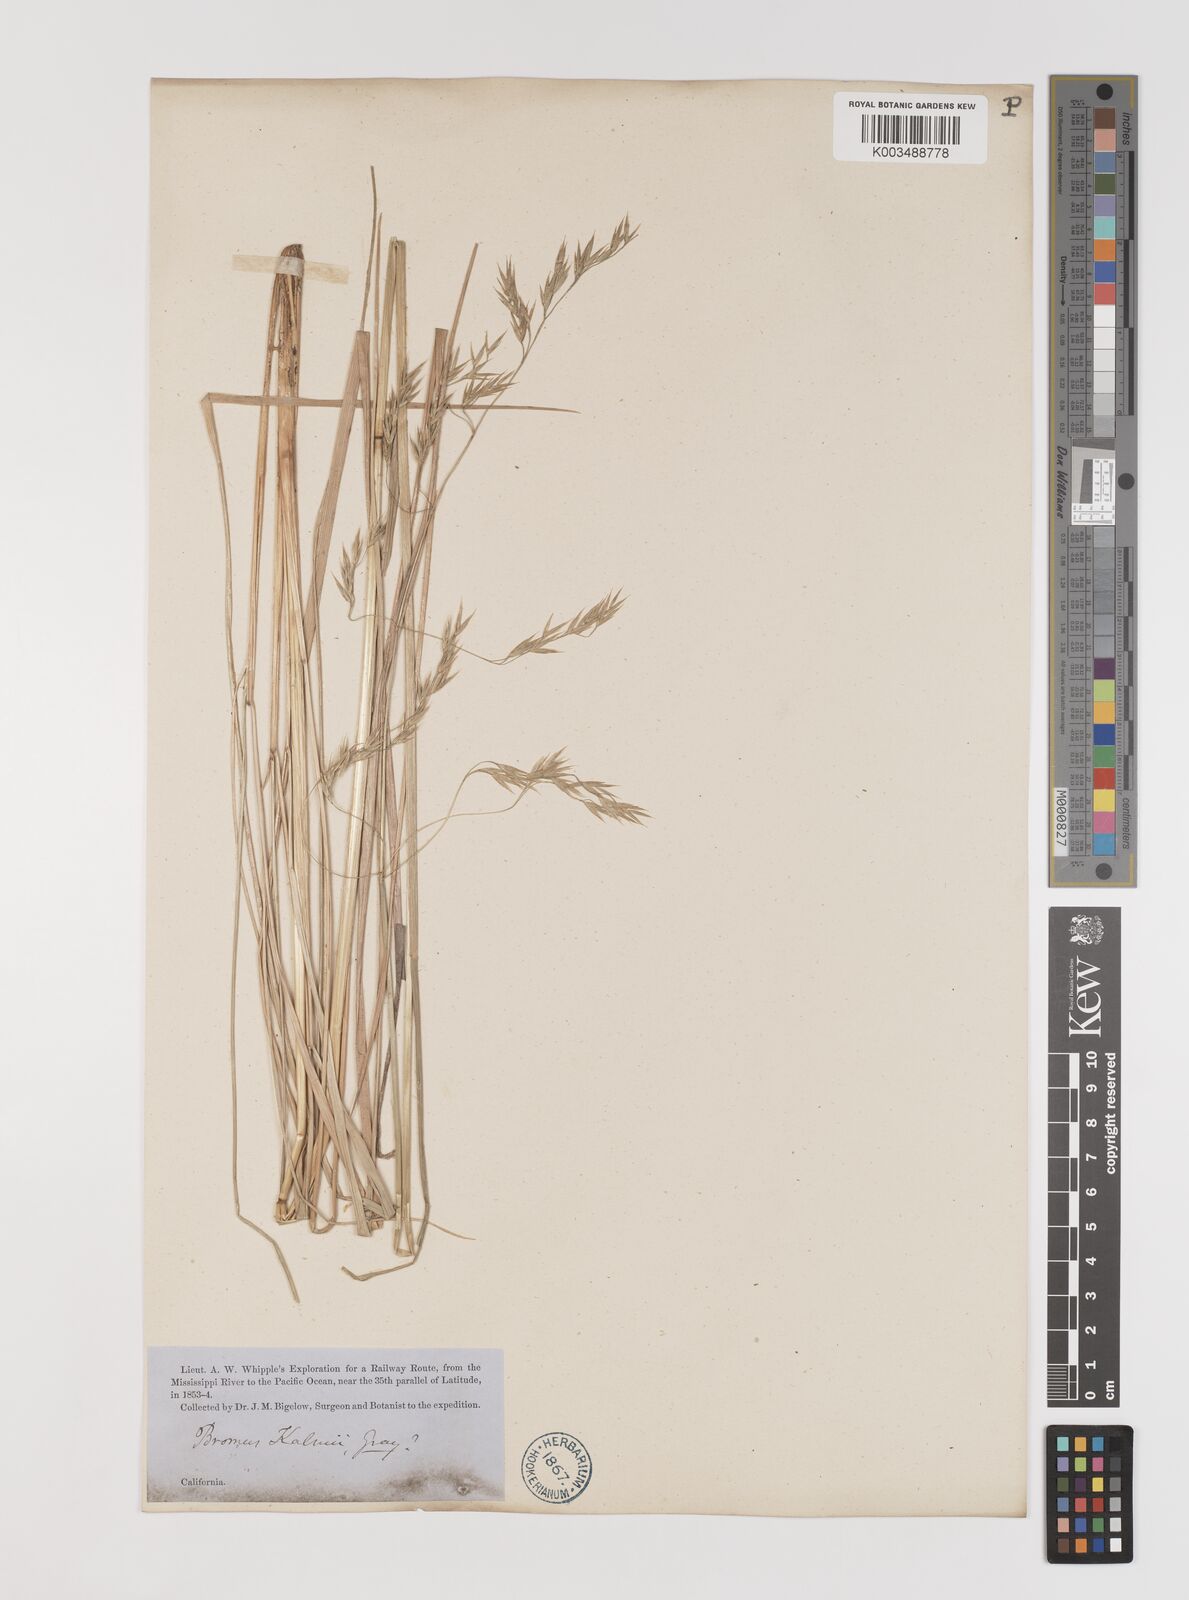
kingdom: Plantae
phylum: Tracheophyta
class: Liliopsida
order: Poales
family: Poaceae
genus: Bromus
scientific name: Bromus
